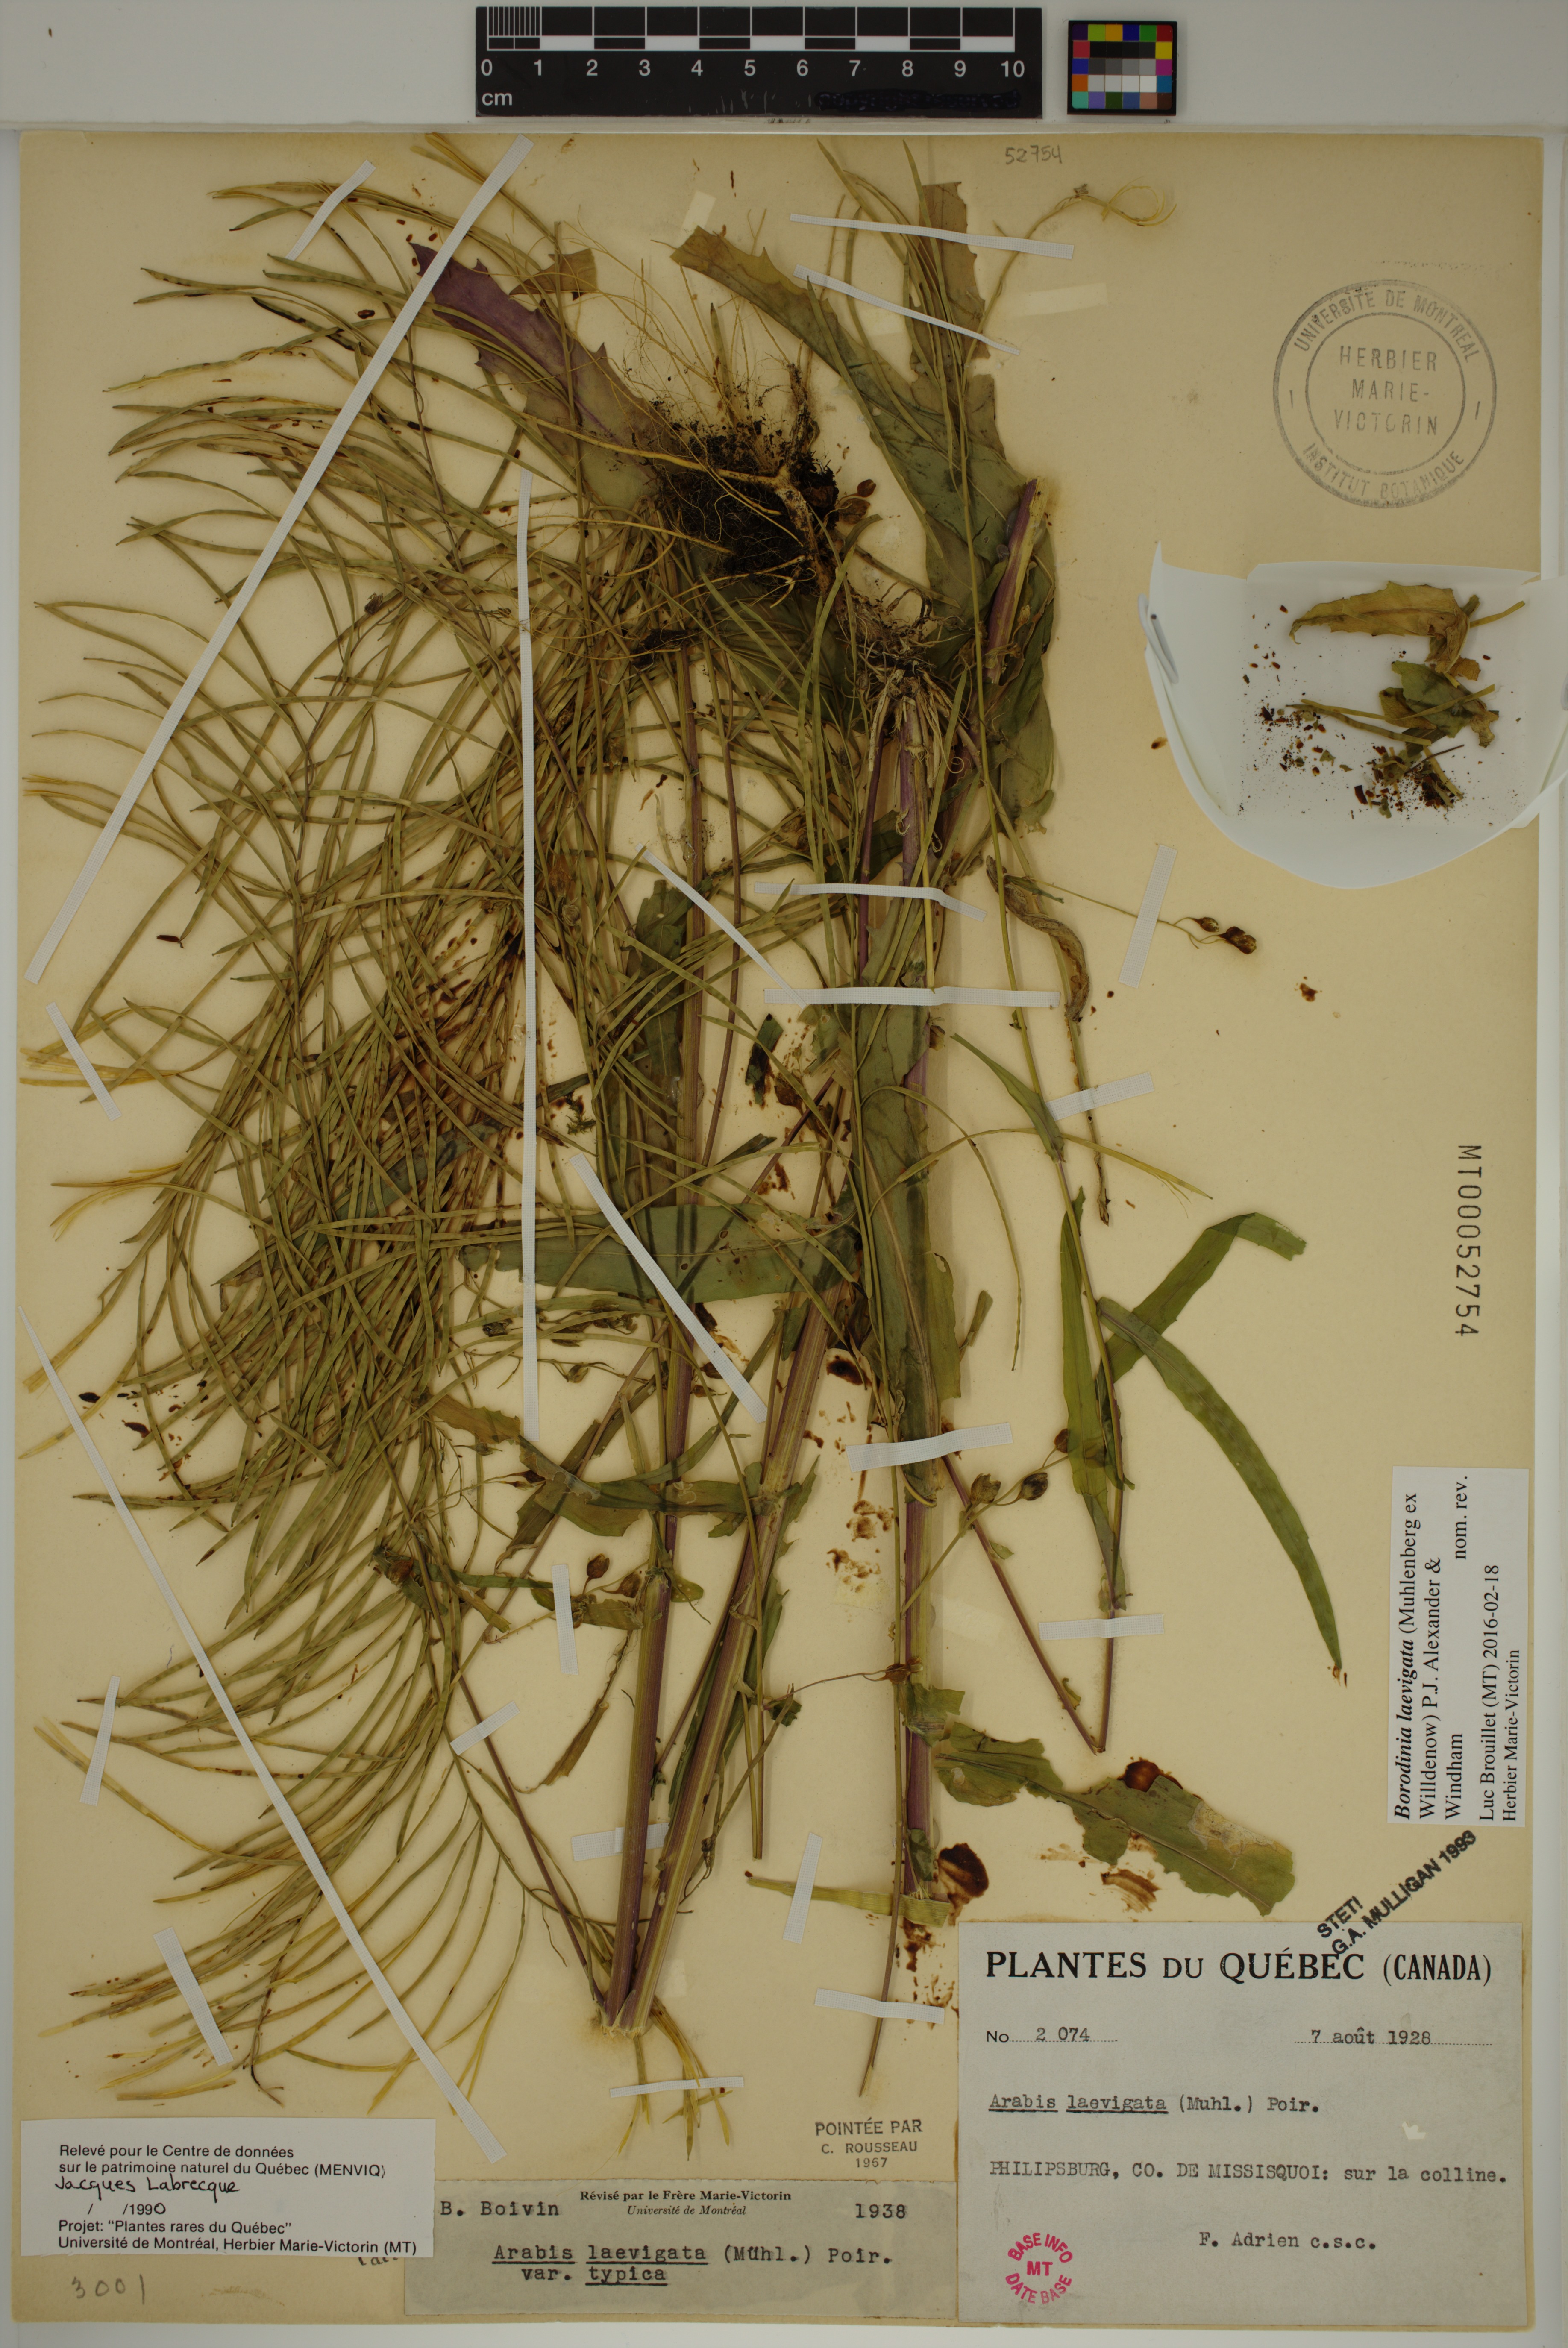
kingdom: Plantae
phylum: Tracheophyta
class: Magnoliopsida
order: Brassicales
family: Brassicaceae
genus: Borodinia
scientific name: Borodinia laevigata
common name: Smooth rockcress
